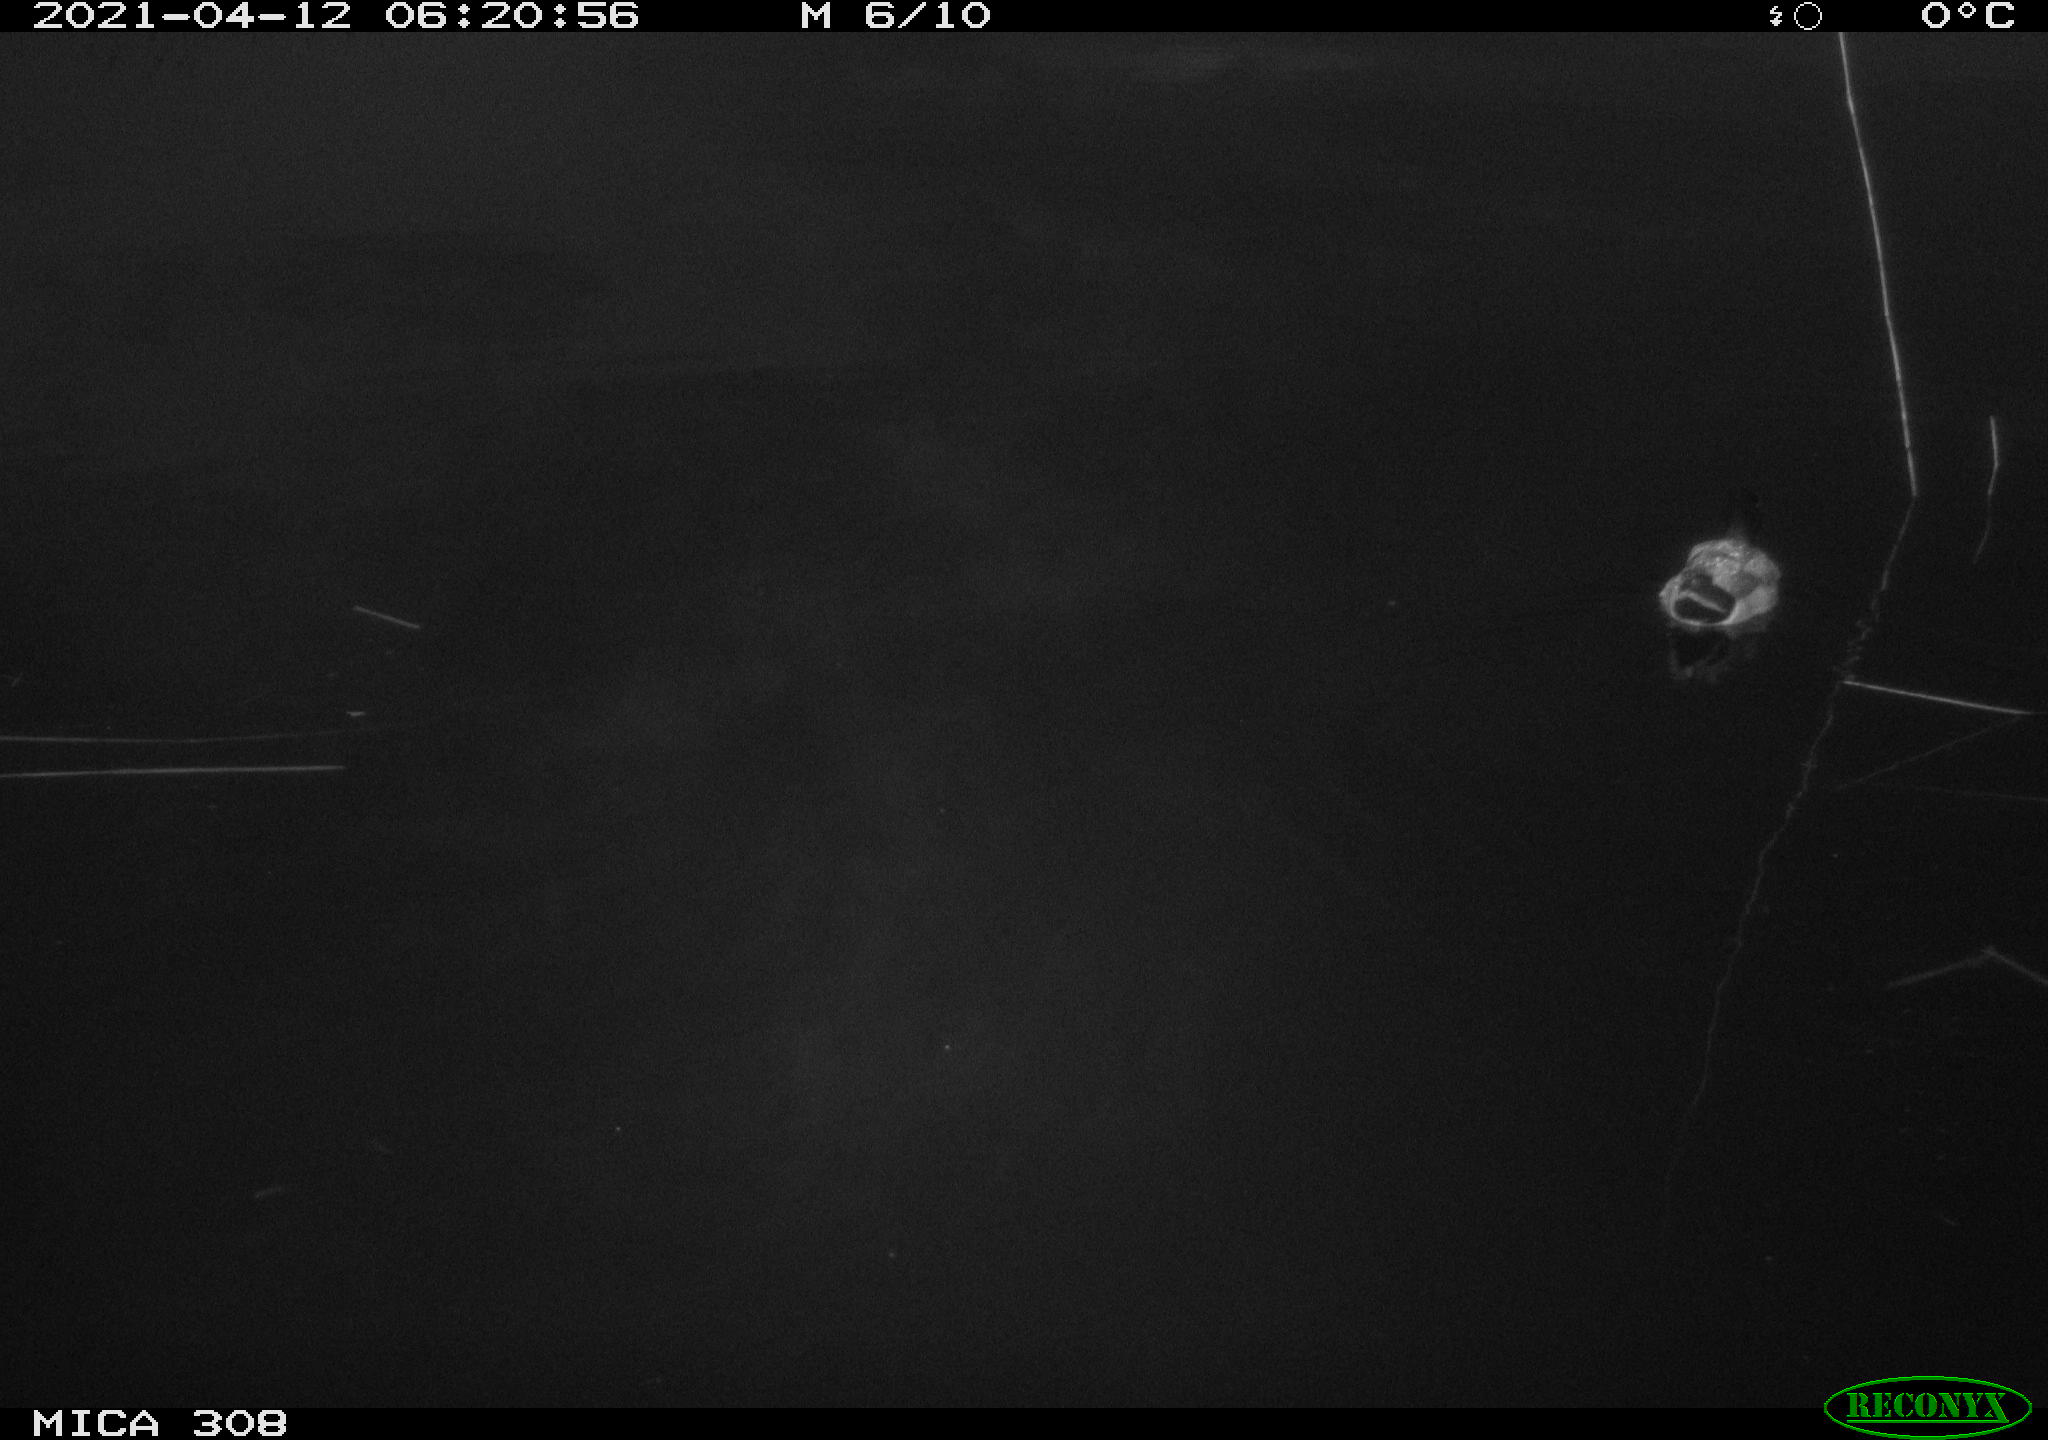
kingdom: Animalia
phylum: Chordata
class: Aves
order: Anseriformes
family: Anatidae
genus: Anas
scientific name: Anas platyrhynchos
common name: Mallard
